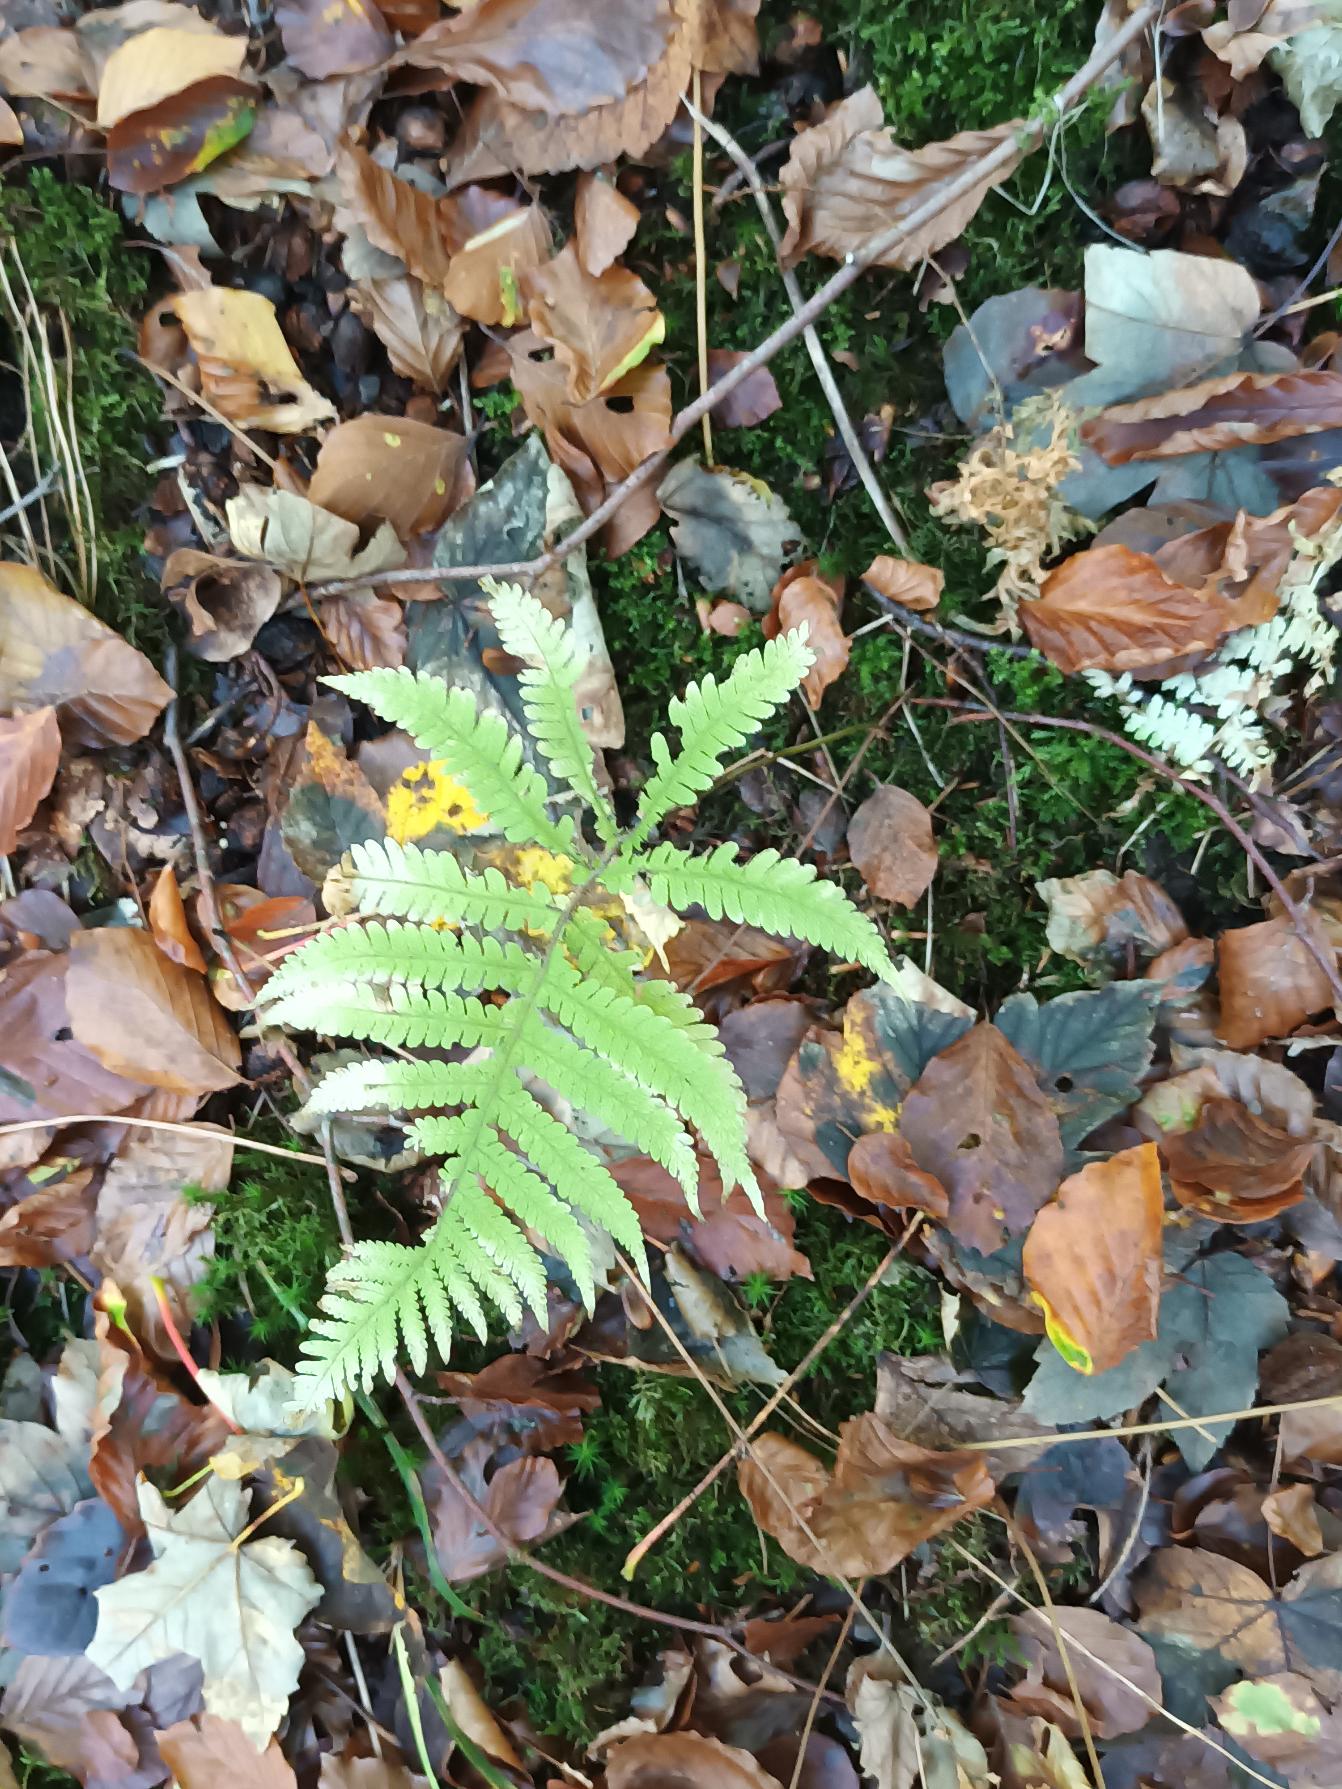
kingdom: Plantae
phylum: Tracheophyta
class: Polypodiopsida
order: Polypodiales
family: Thelypteridaceae
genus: Phegopteris
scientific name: Phegopteris connectilis
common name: Dunet egebregne
